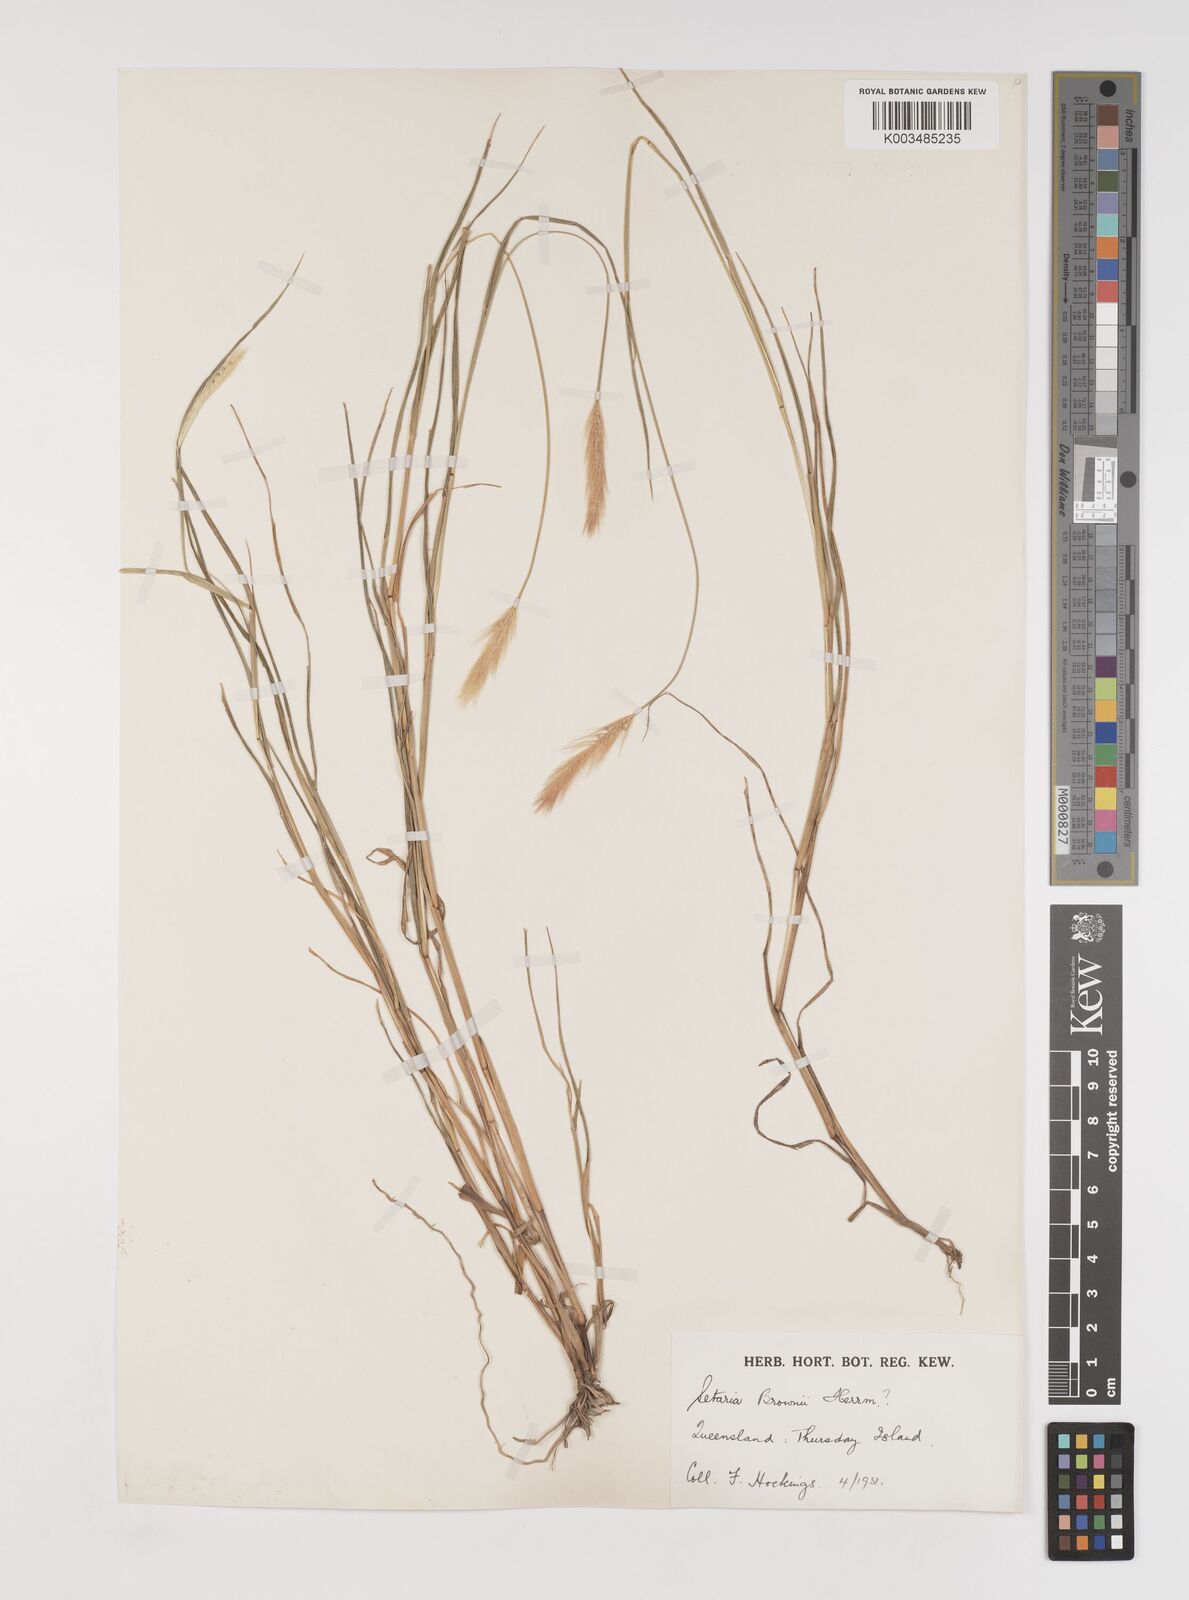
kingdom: Plantae
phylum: Tracheophyta
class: Liliopsida
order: Poales
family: Poaceae
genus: Setaria
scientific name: Setaria surgens
